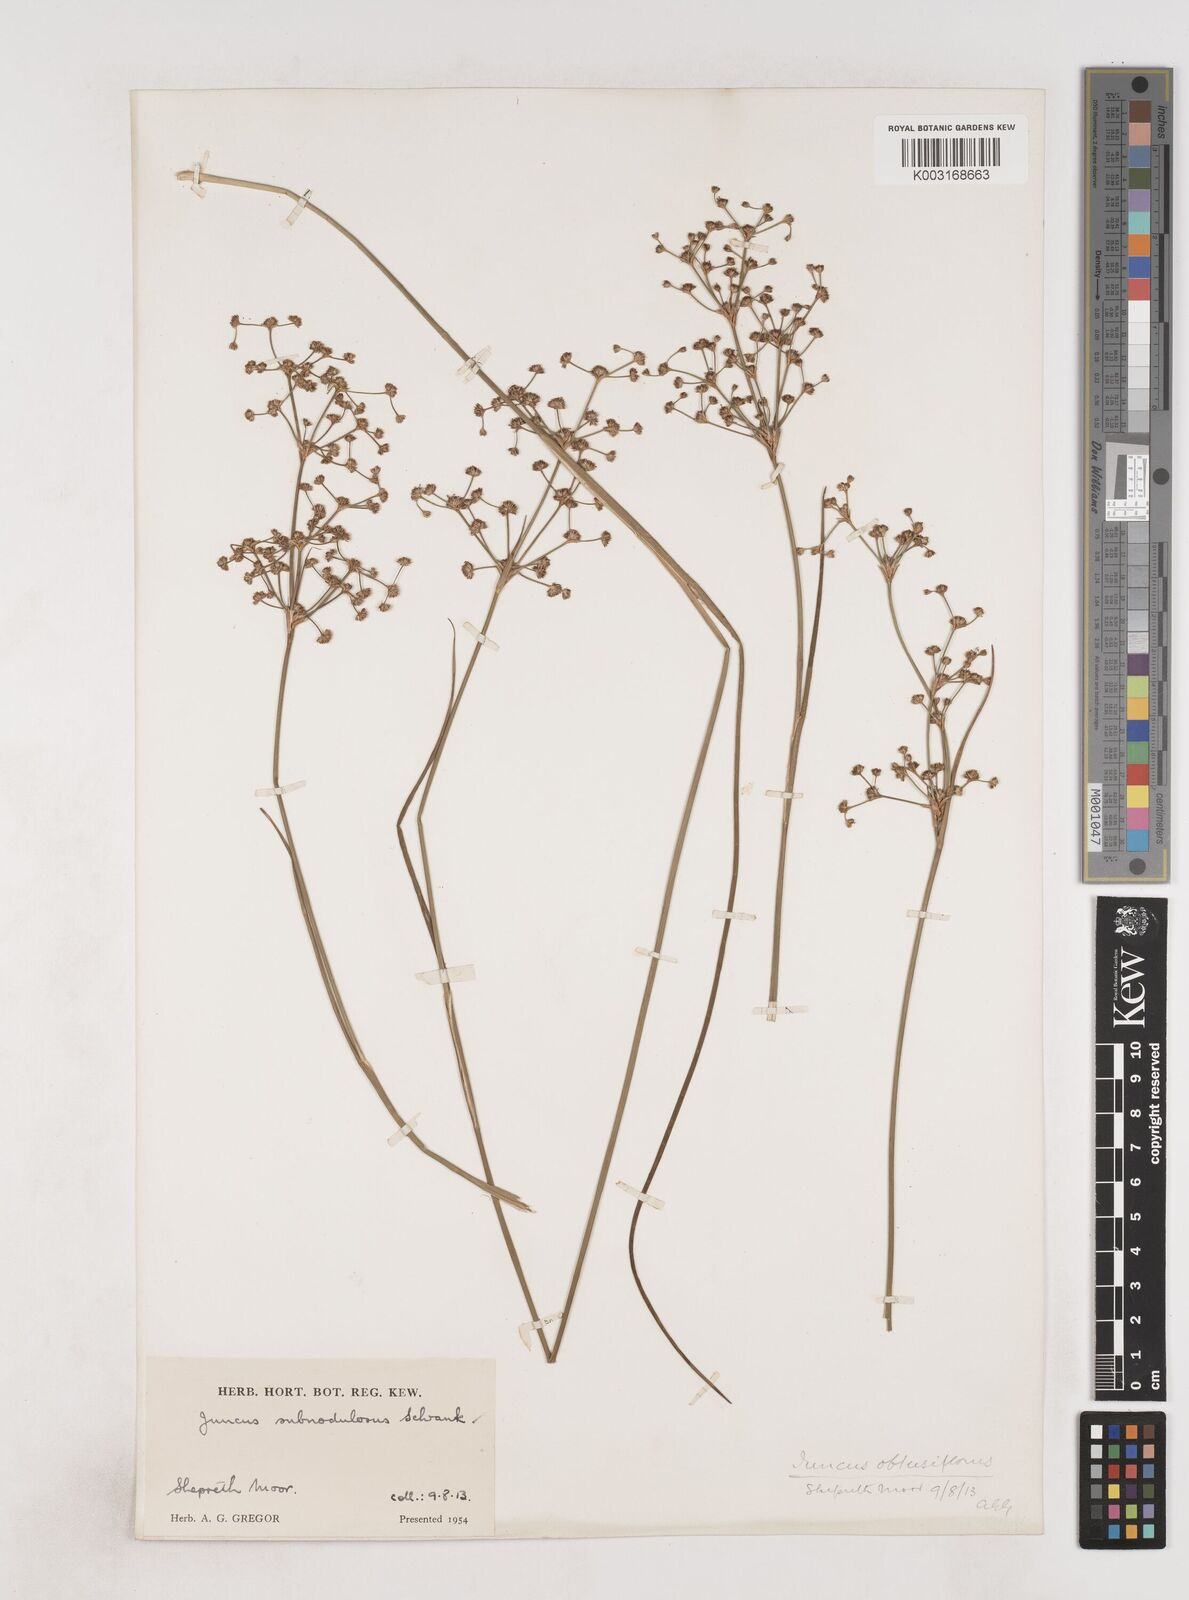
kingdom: Plantae
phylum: Tracheophyta
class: Liliopsida
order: Poales
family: Juncaceae
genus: Juncus
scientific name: Juncus subnodulosus
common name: Blunt-flowered rush
